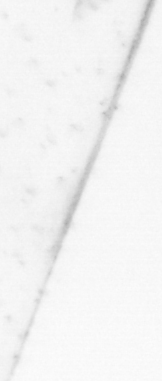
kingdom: Animalia
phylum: Chaetognatha
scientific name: Chaetognatha
